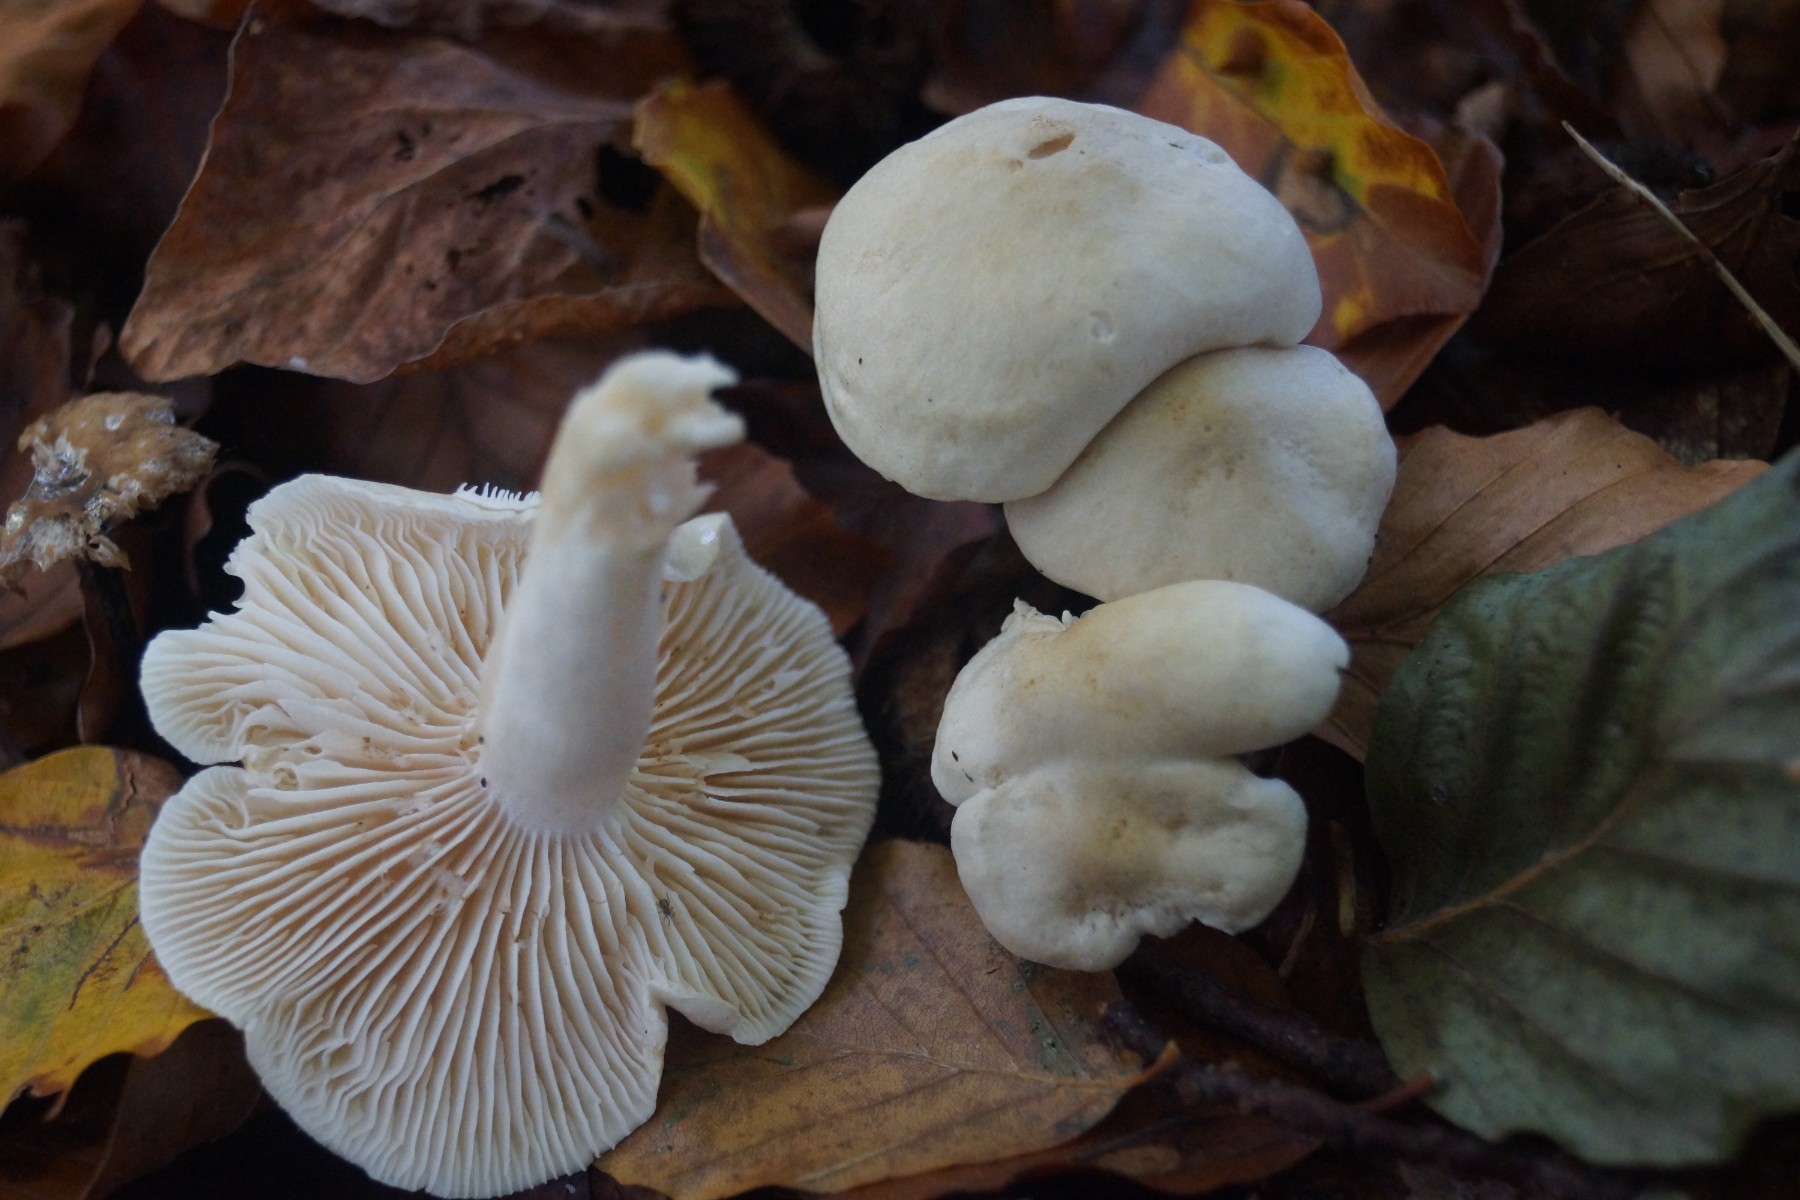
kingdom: Fungi
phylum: Basidiomycota
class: Agaricomycetes
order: Agaricales
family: Tricholomataceae
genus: Tricholoma
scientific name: Tricholoma lascivum
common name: stinkende ridderhat
